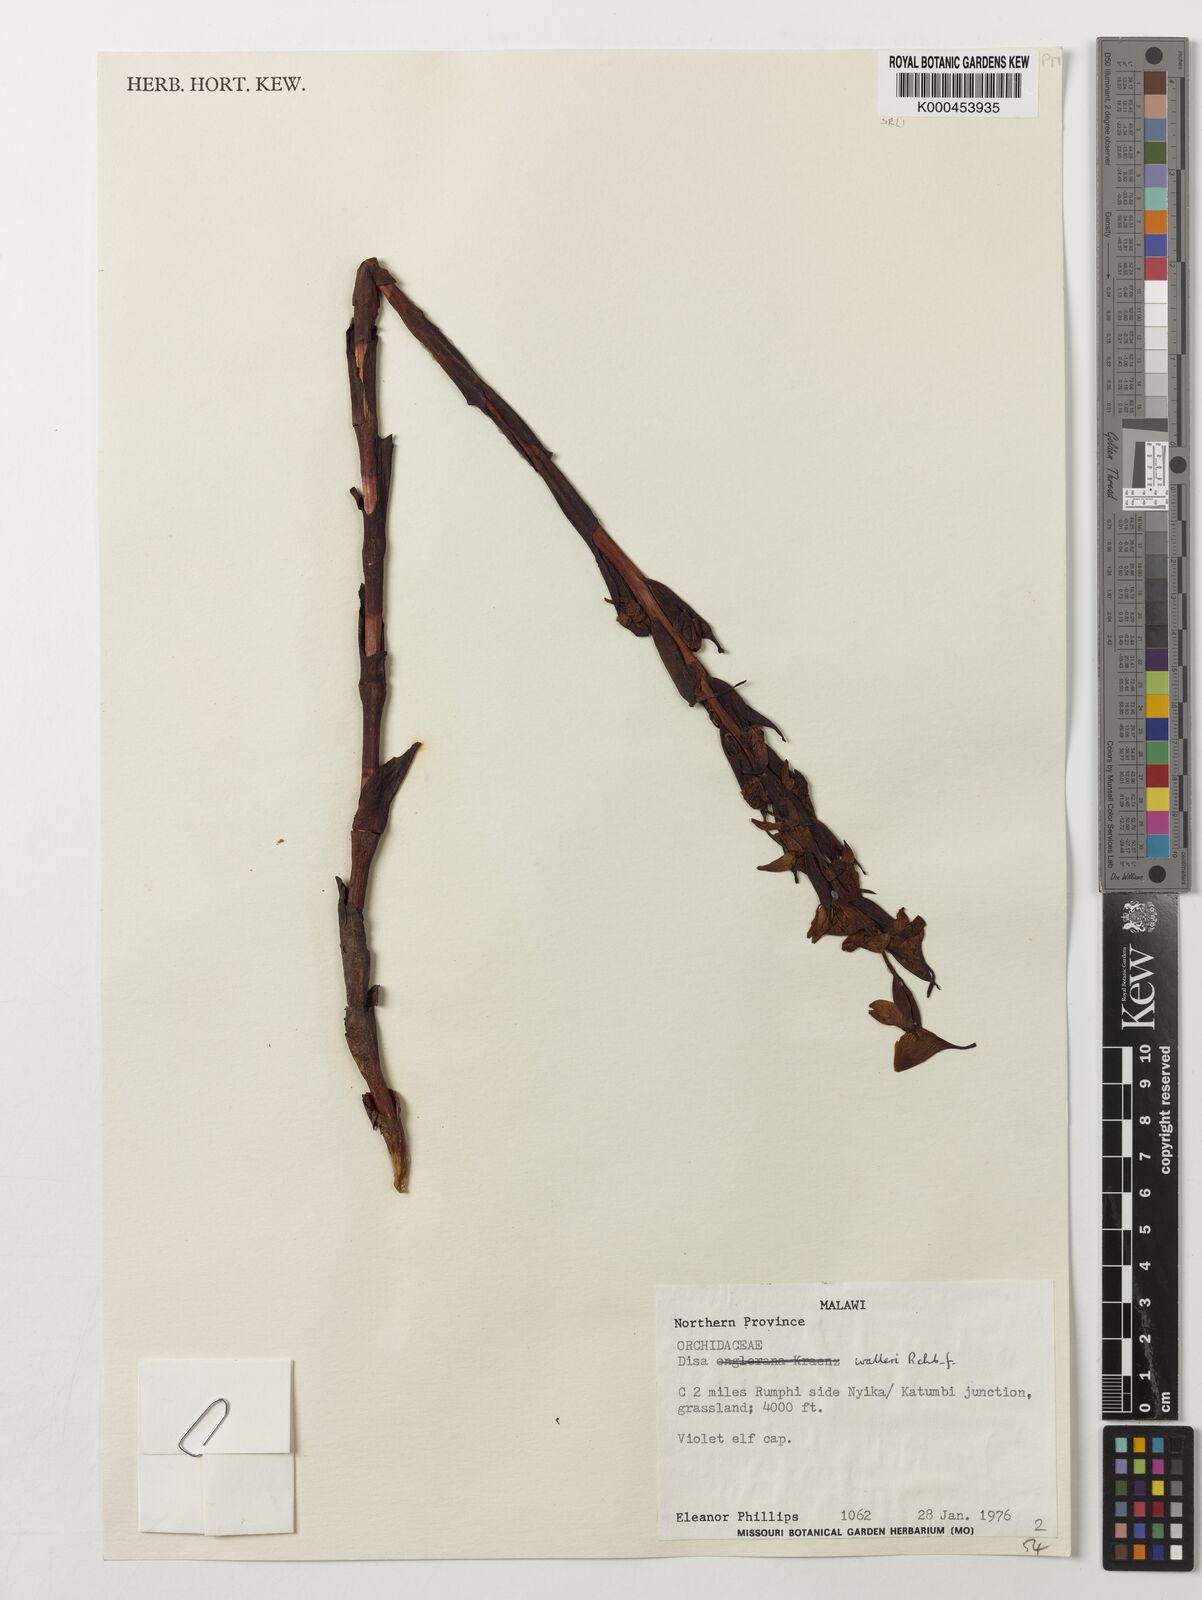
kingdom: Plantae
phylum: Tracheophyta
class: Liliopsida
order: Asparagales
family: Orchidaceae
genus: Disa
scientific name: Disa walleri
